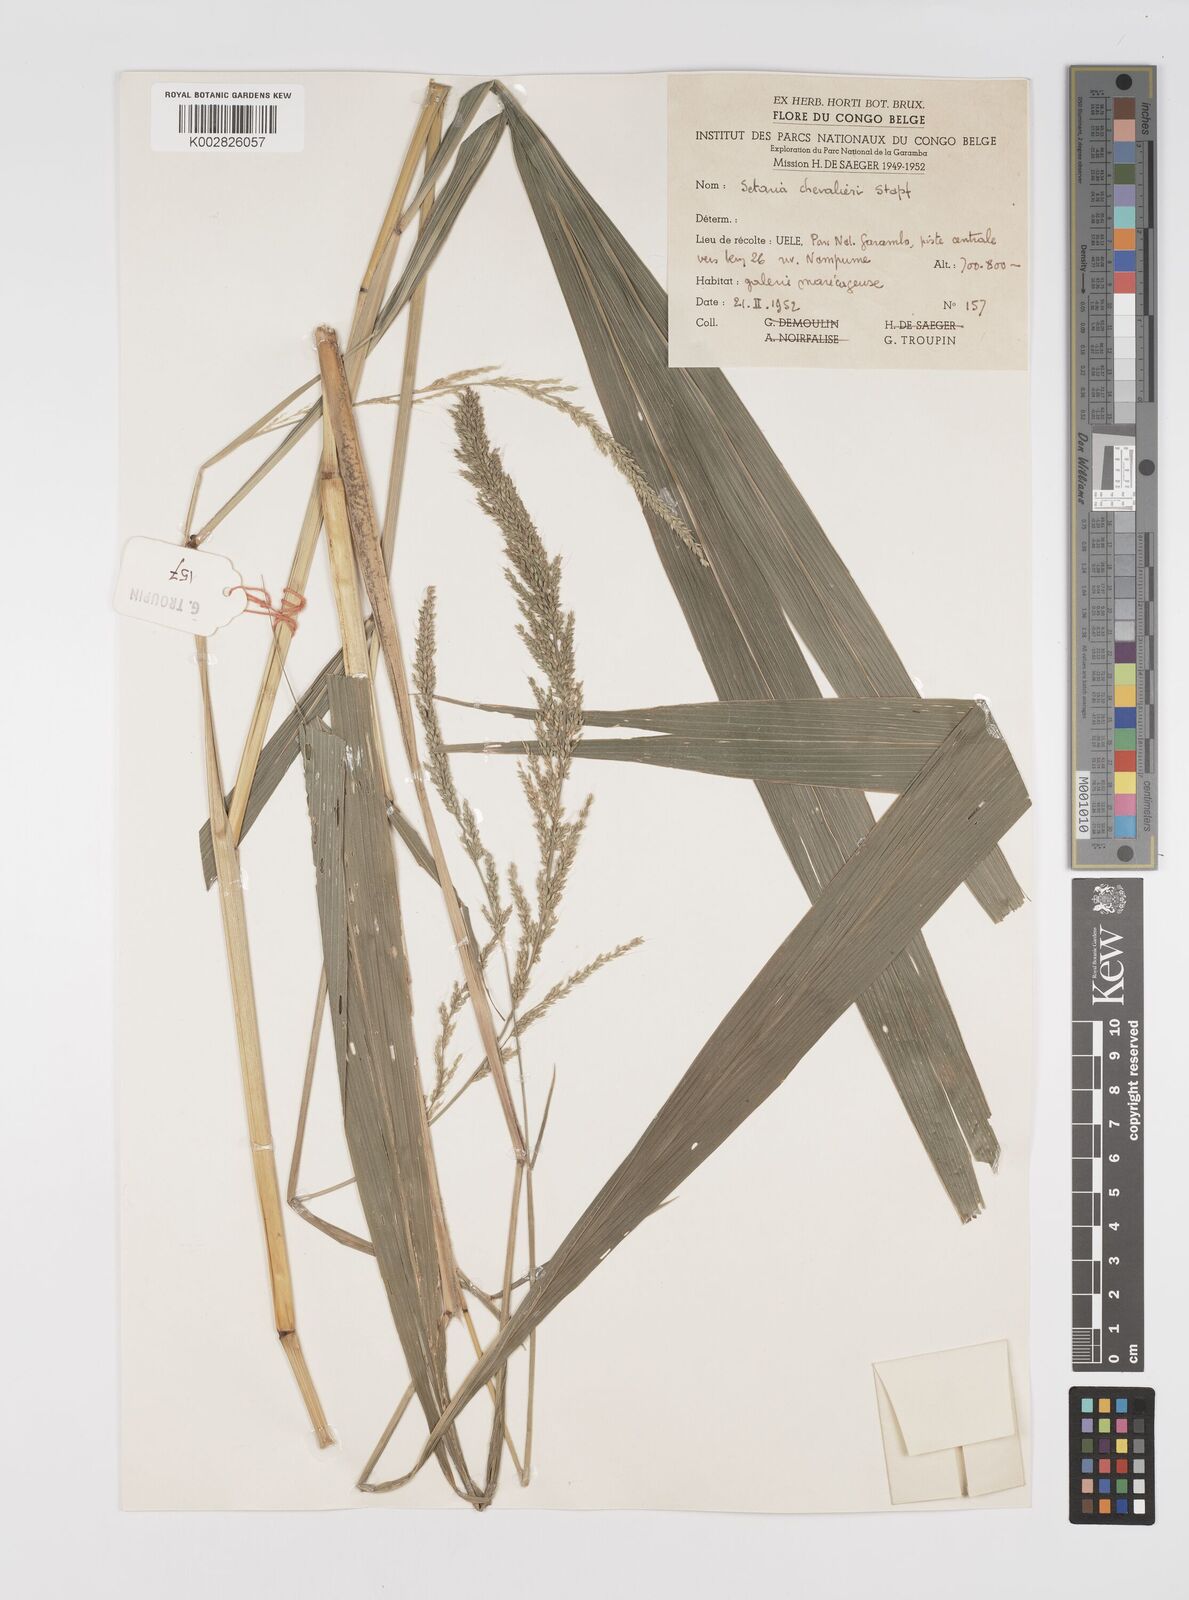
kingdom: Plantae
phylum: Tracheophyta
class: Liliopsida
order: Poales
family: Poaceae
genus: Setaria
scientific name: Setaria megaphylla
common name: Bigleaf bristlegrass
